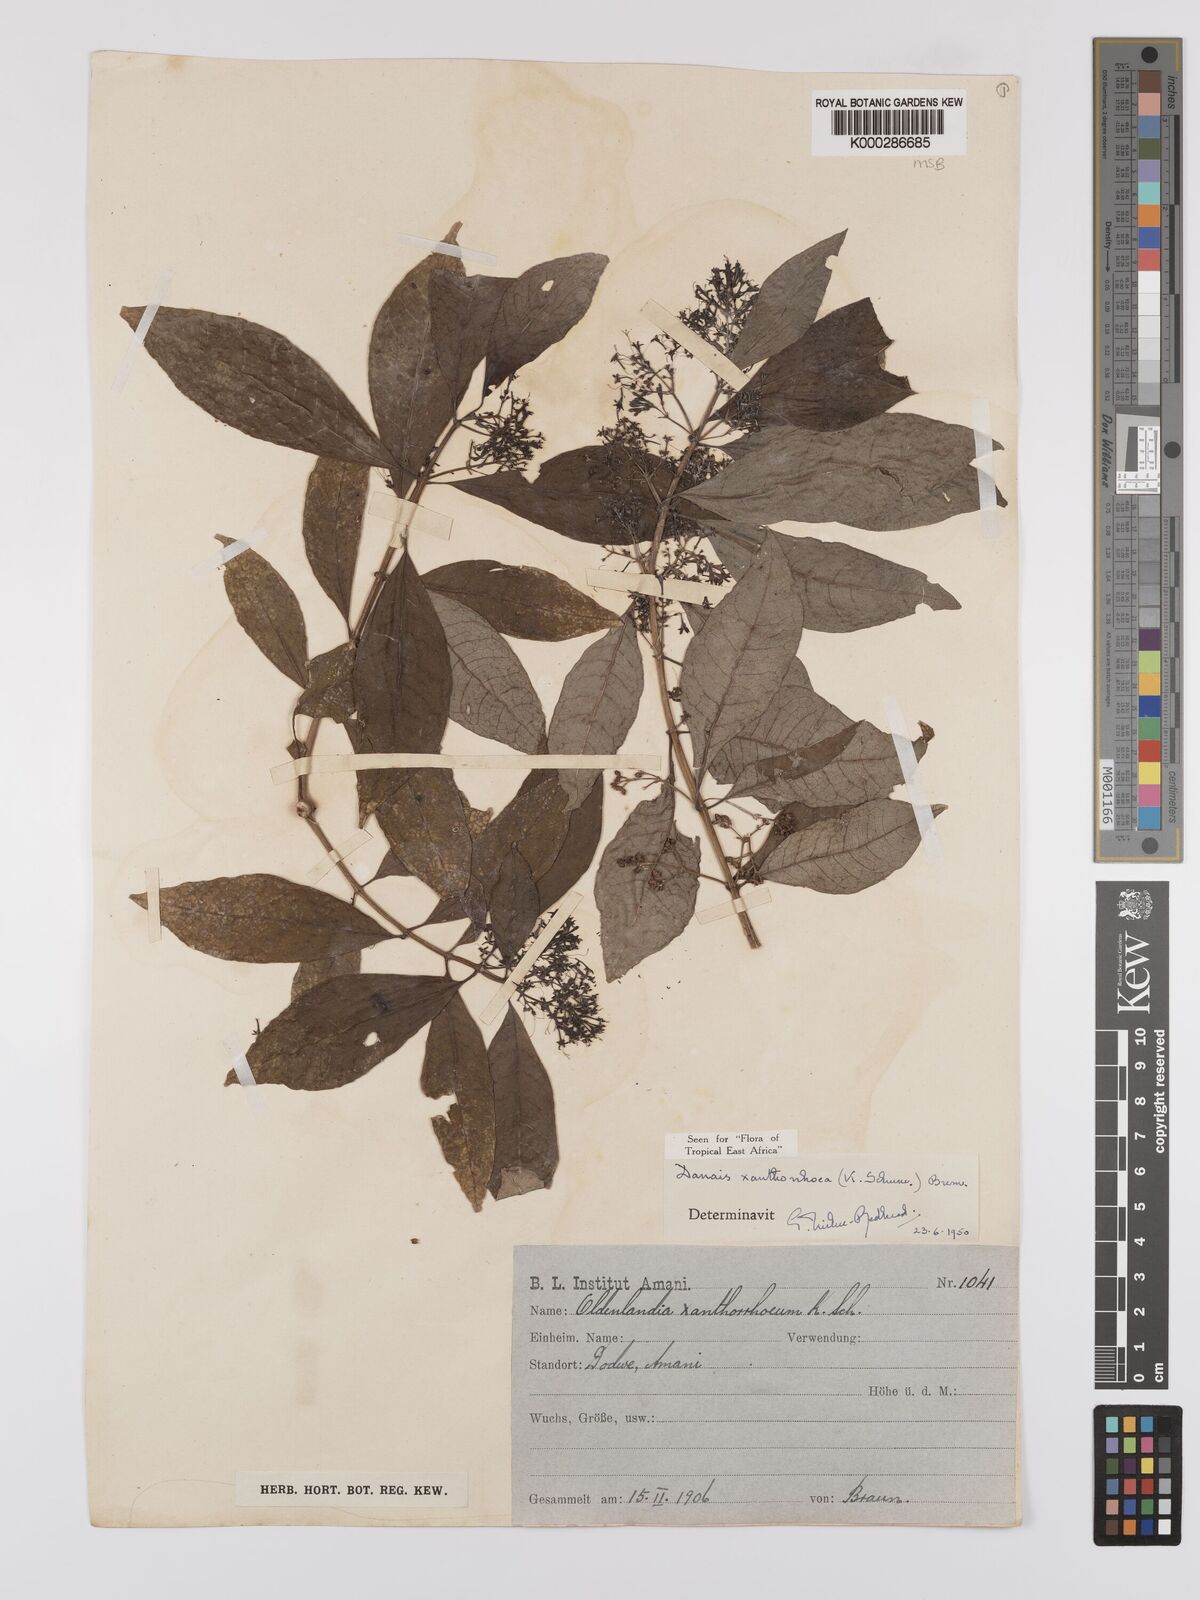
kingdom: Plantae
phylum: Tracheophyta
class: Magnoliopsida
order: Gentianales
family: Rubiaceae
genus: Danais
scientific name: Danais xanthorrhoea
